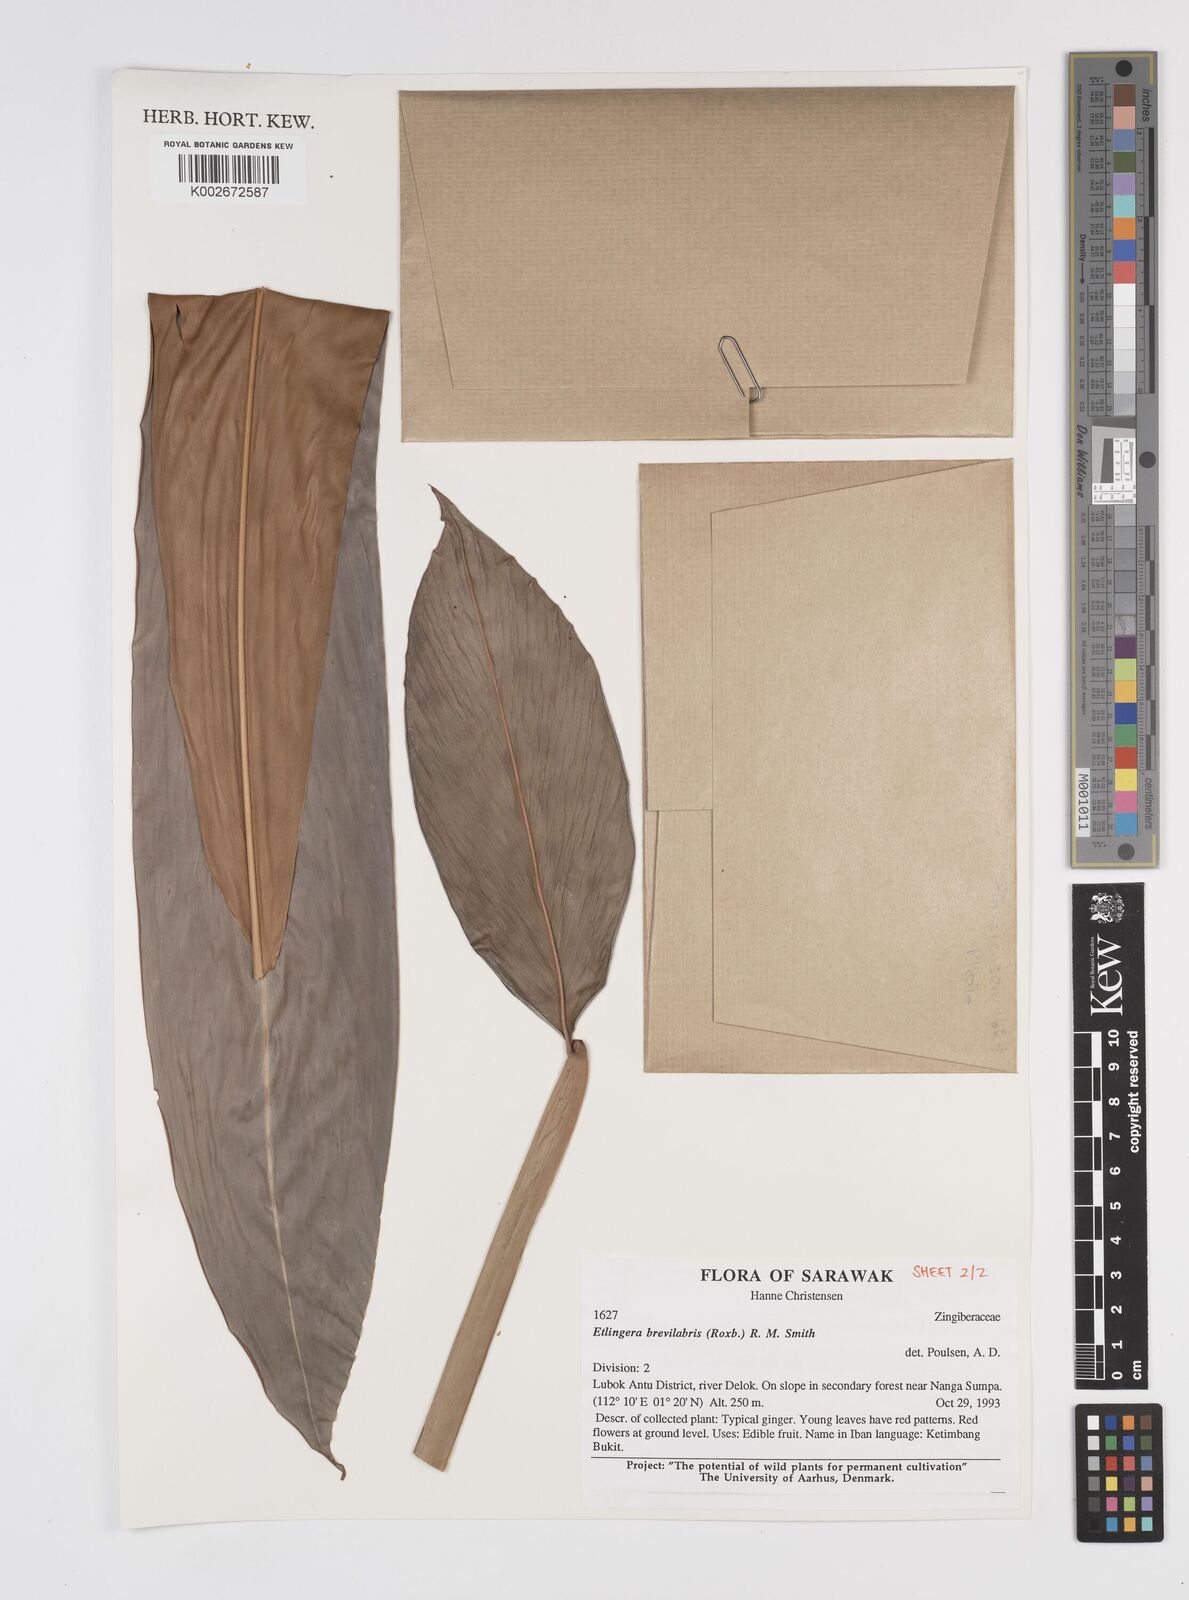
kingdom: Plantae
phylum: Tracheophyta
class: Liliopsida
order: Zingiberales
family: Zingiberaceae
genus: Etlingera
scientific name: Etlingera
